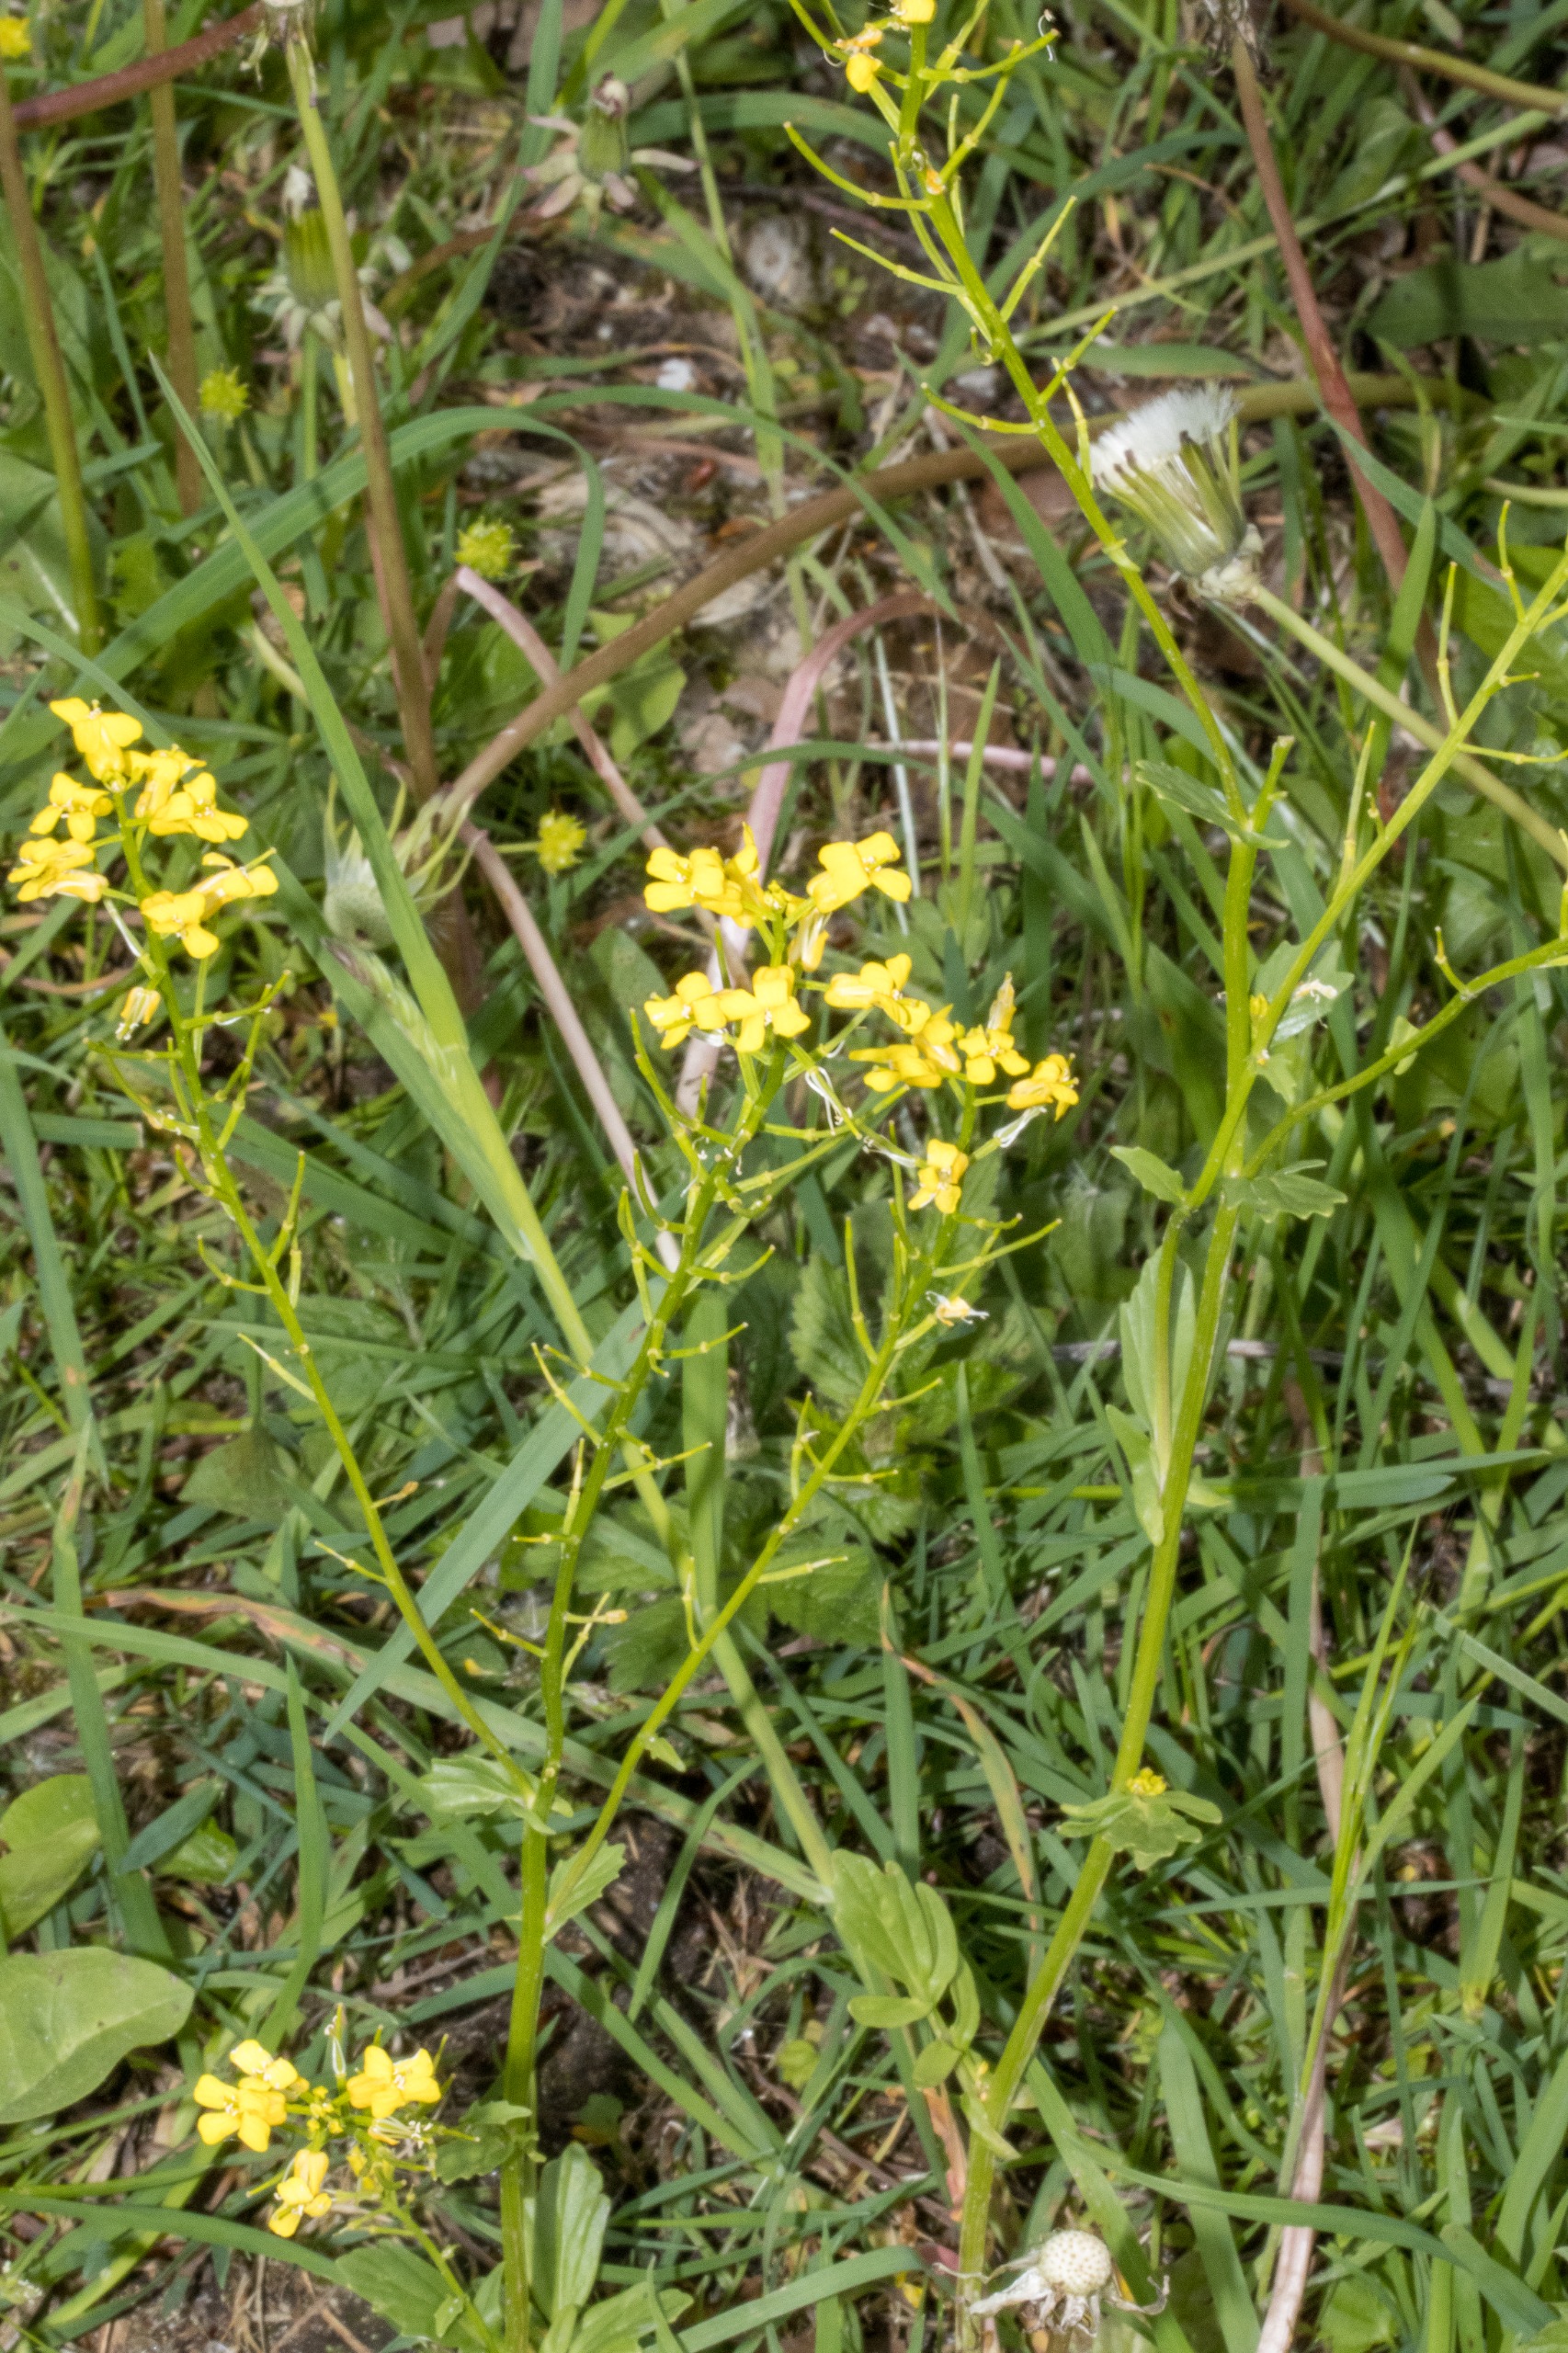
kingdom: Plantae
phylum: Tracheophyta
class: Magnoliopsida
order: Brassicales
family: Brassicaceae
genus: Barbarea
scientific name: Barbarea vulgaris
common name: Udspærret vinterkarse
